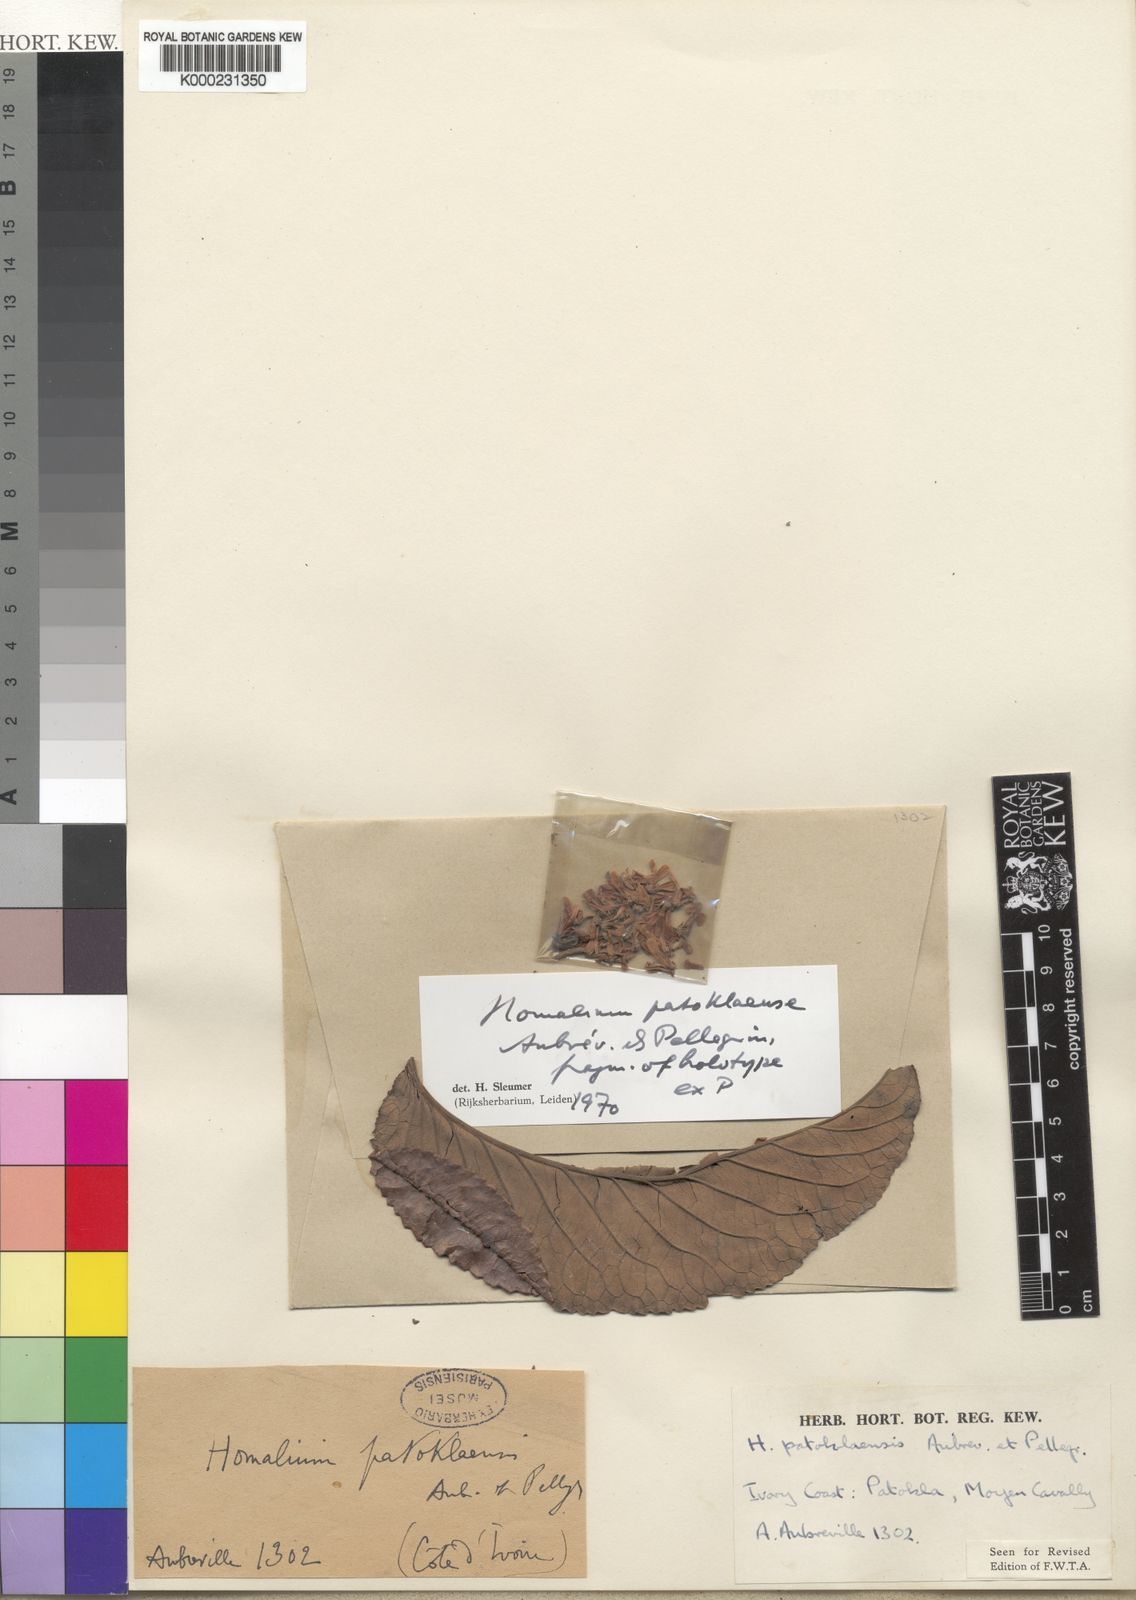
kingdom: Plantae
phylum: Tracheophyta
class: Magnoliopsida
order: Malpighiales
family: Salicaceae
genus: Homalium
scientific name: Homalium lastoursvillense
